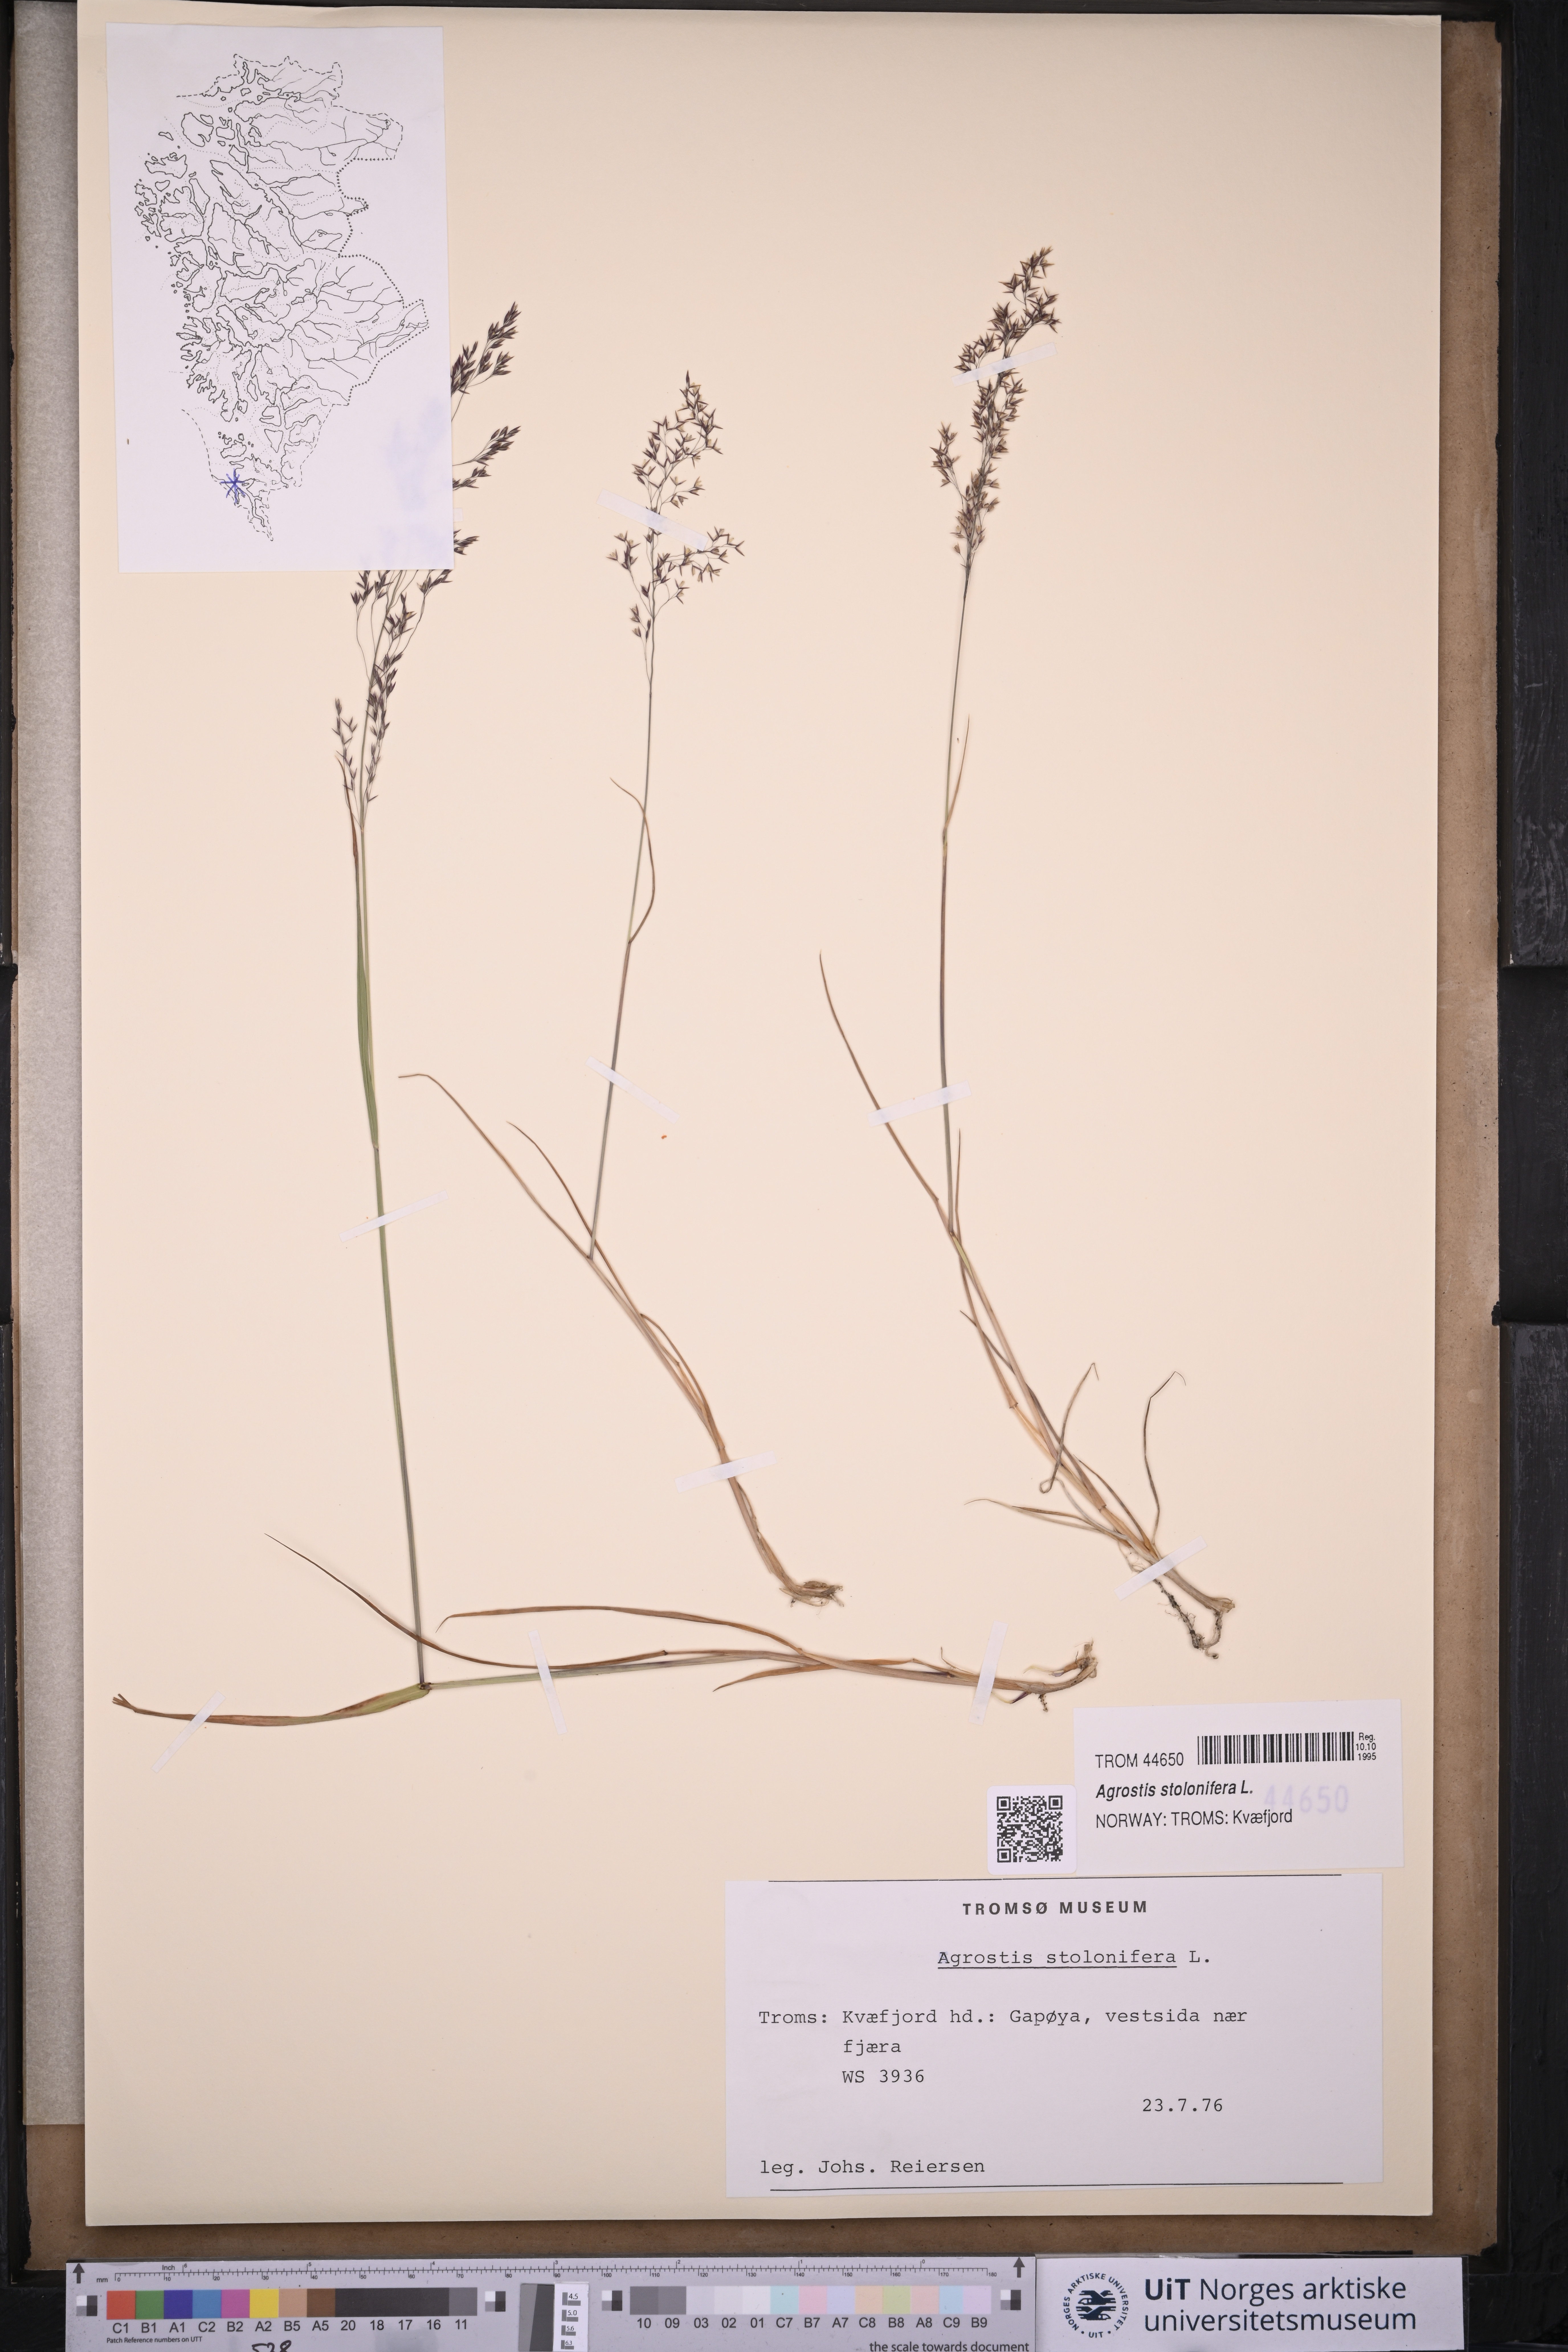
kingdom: Plantae
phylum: Tracheophyta
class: Liliopsida
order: Poales
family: Poaceae
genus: Agrostis
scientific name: Agrostis stolonifera
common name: Creeping bentgrass
